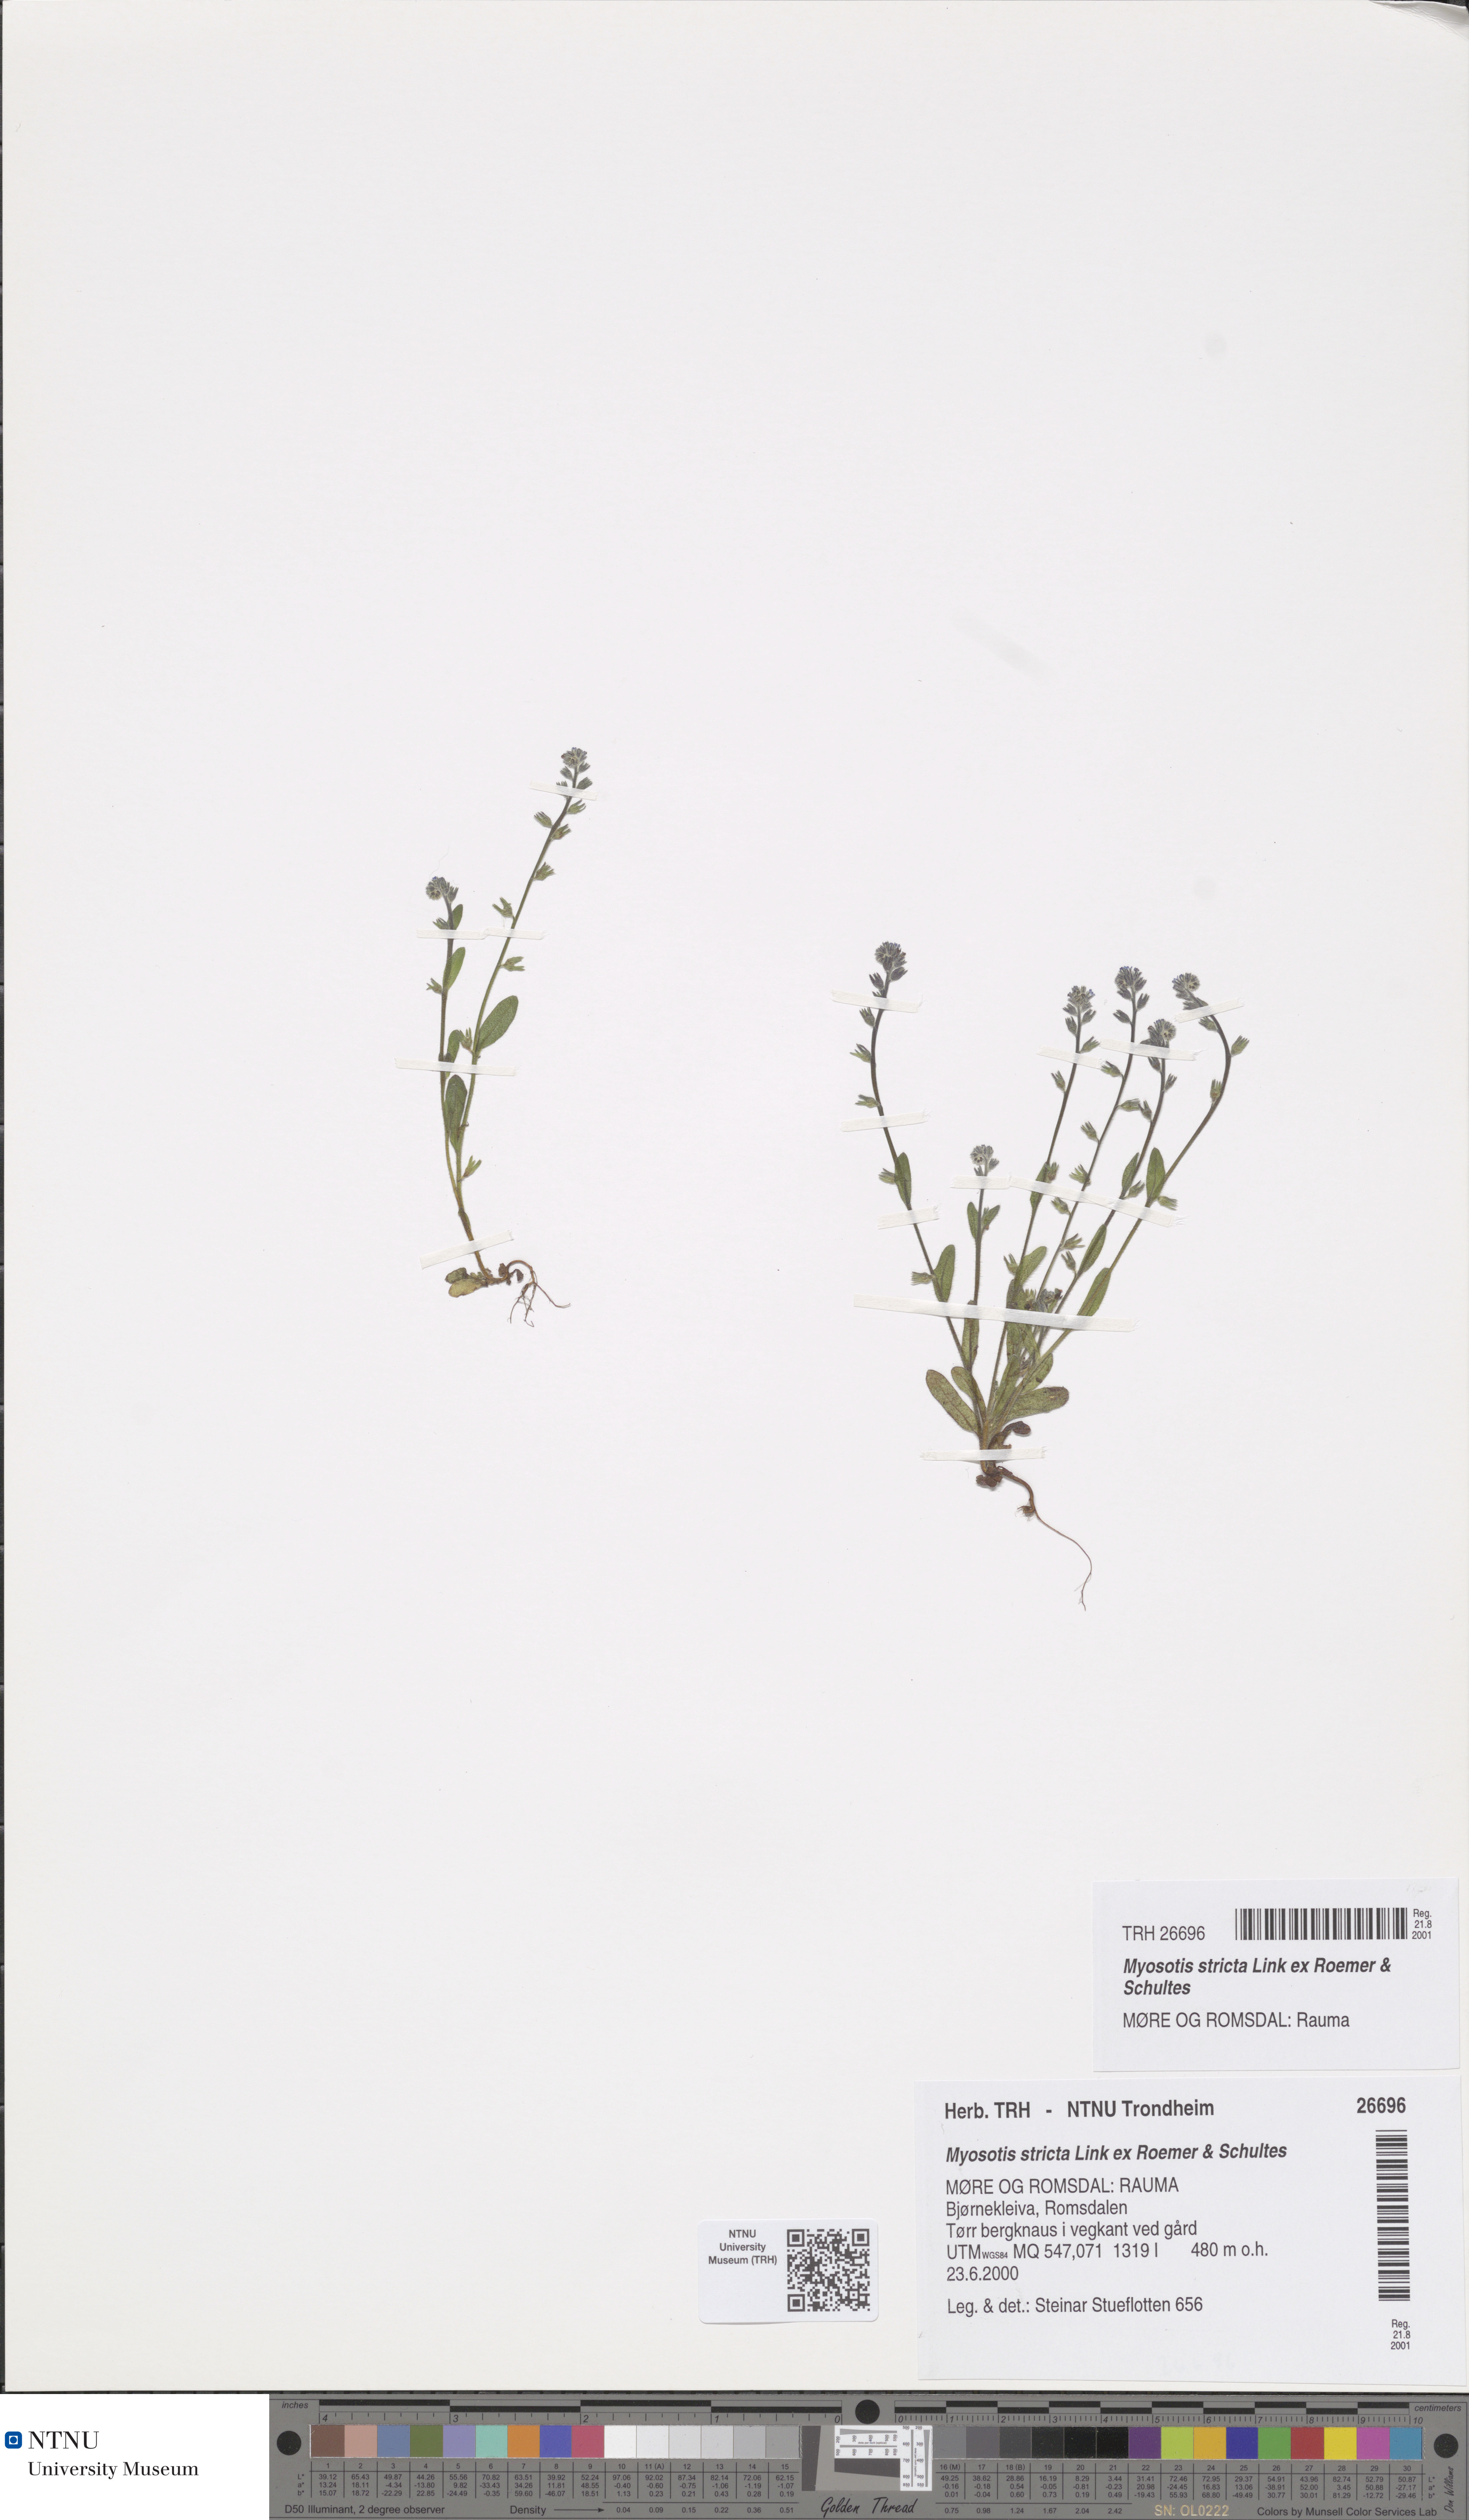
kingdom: Plantae
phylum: Tracheophyta
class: Magnoliopsida
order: Boraginales
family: Boraginaceae
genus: Myosotis
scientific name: Myosotis stricta
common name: Strict forget-me-not
